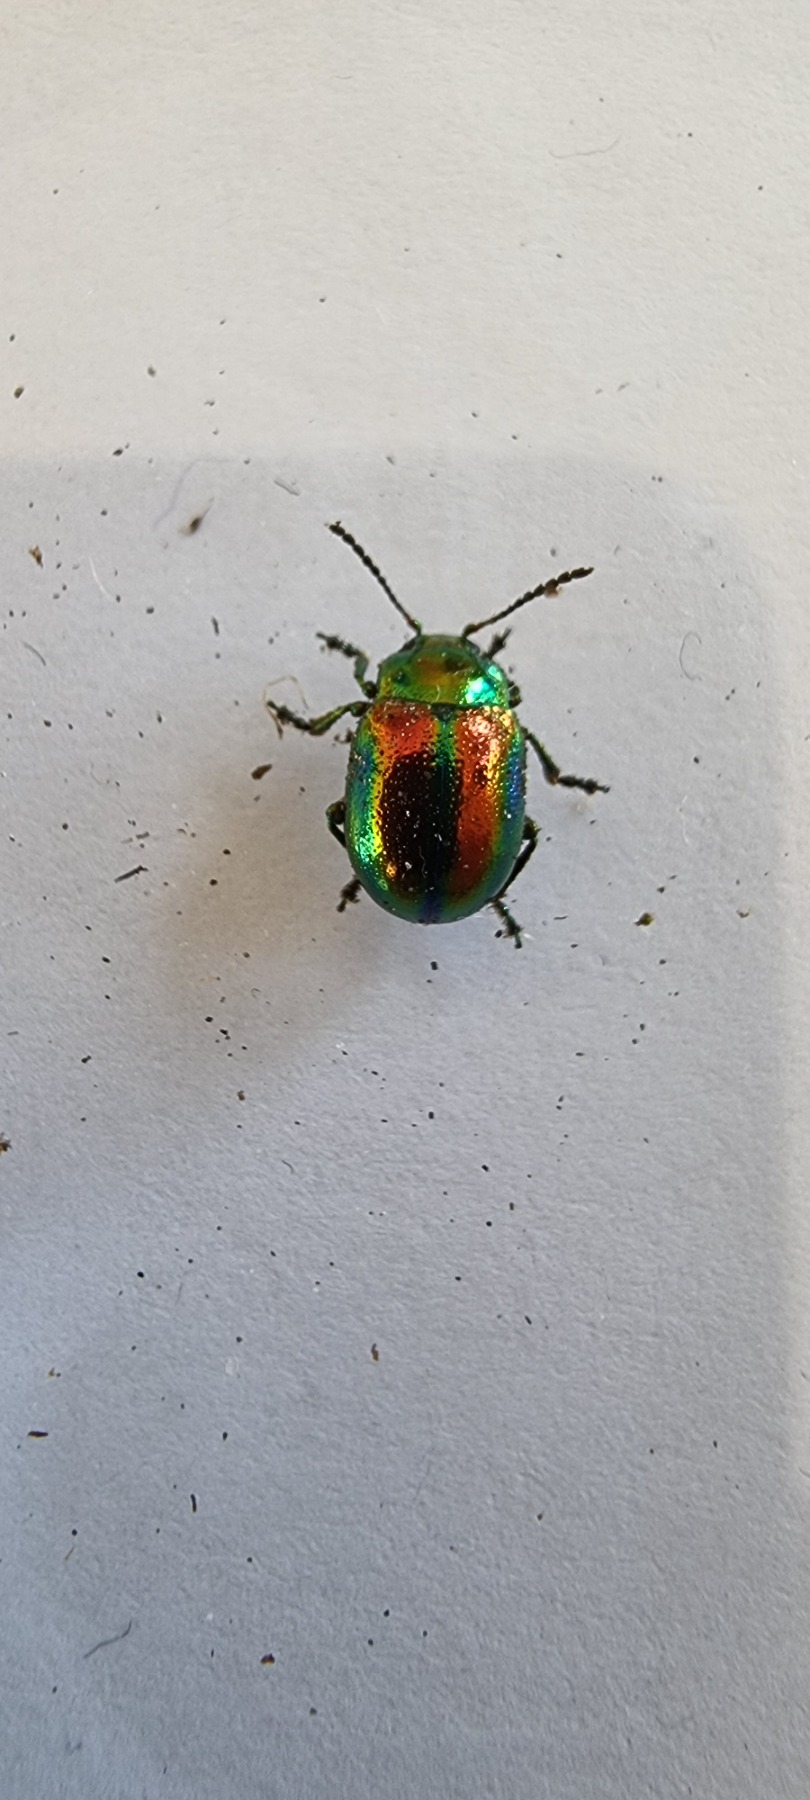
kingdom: Animalia
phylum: Arthropoda
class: Insecta
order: Coleoptera
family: Chrysomelidae
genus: Chrysolina
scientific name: Chrysolina fastuosa
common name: Tvetandbladbille
